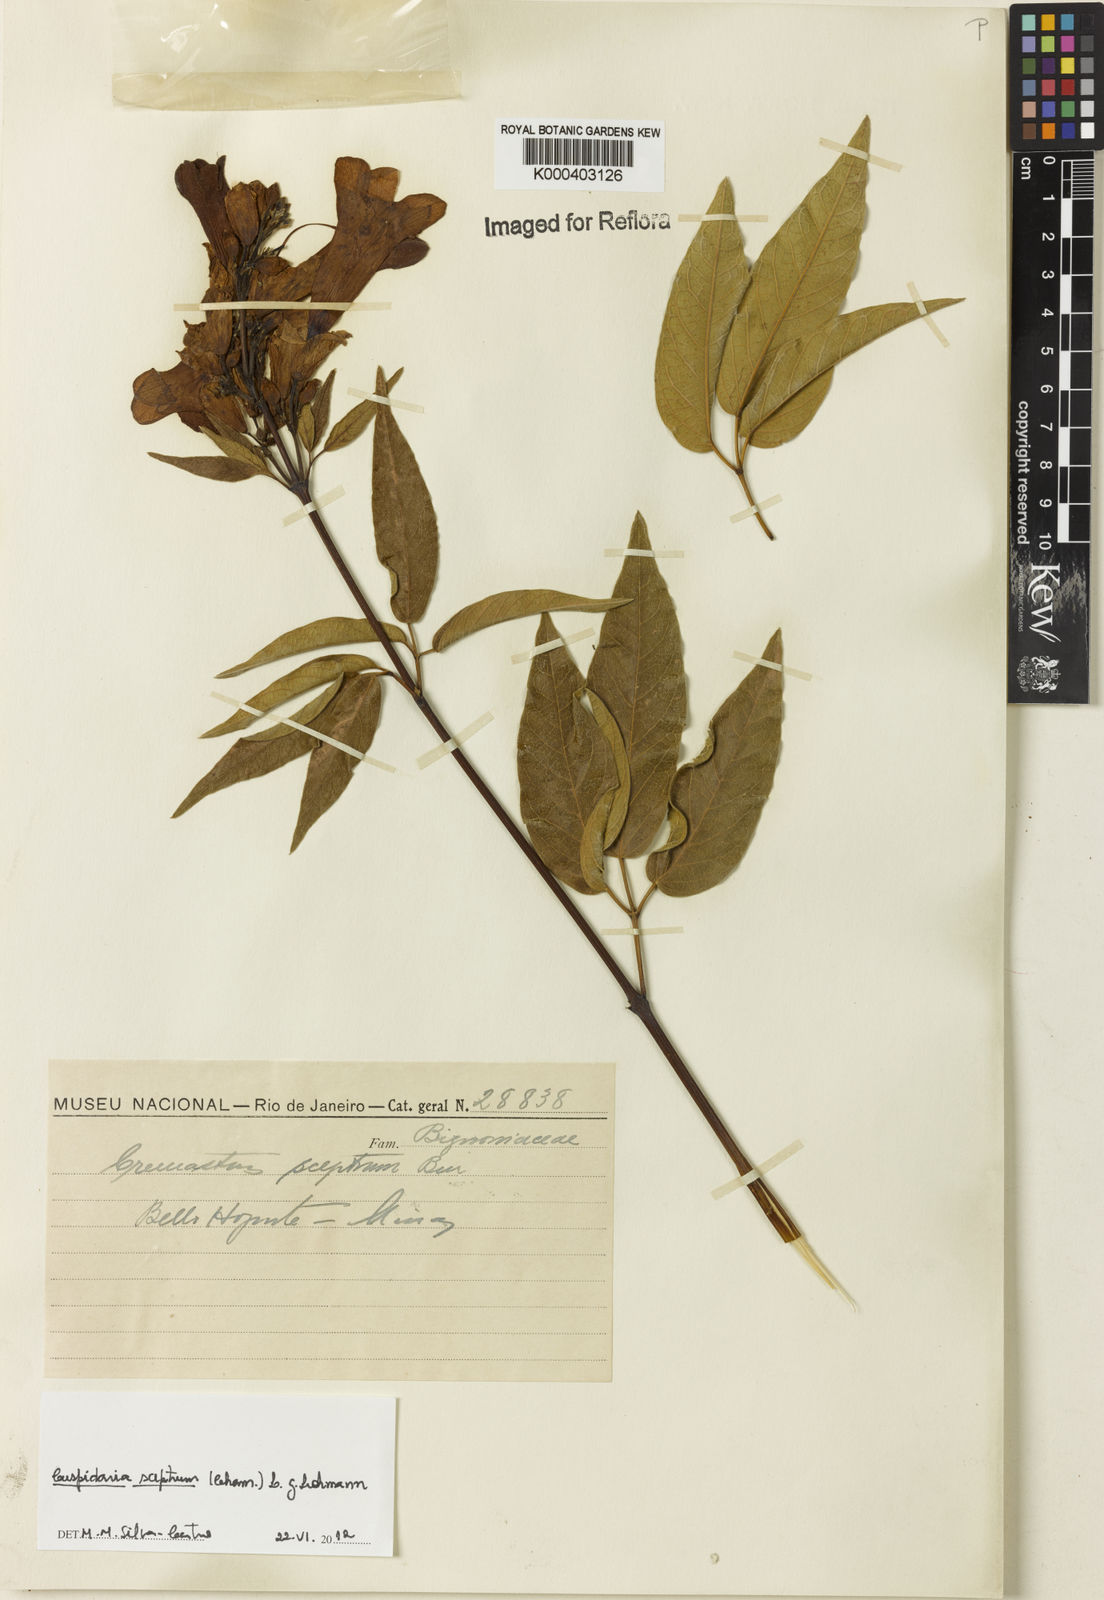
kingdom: Plantae
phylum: Tracheophyta
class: Magnoliopsida
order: Lamiales
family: Bignoniaceae
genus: Cuspidaria
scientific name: Cuspidaria sceptrum
